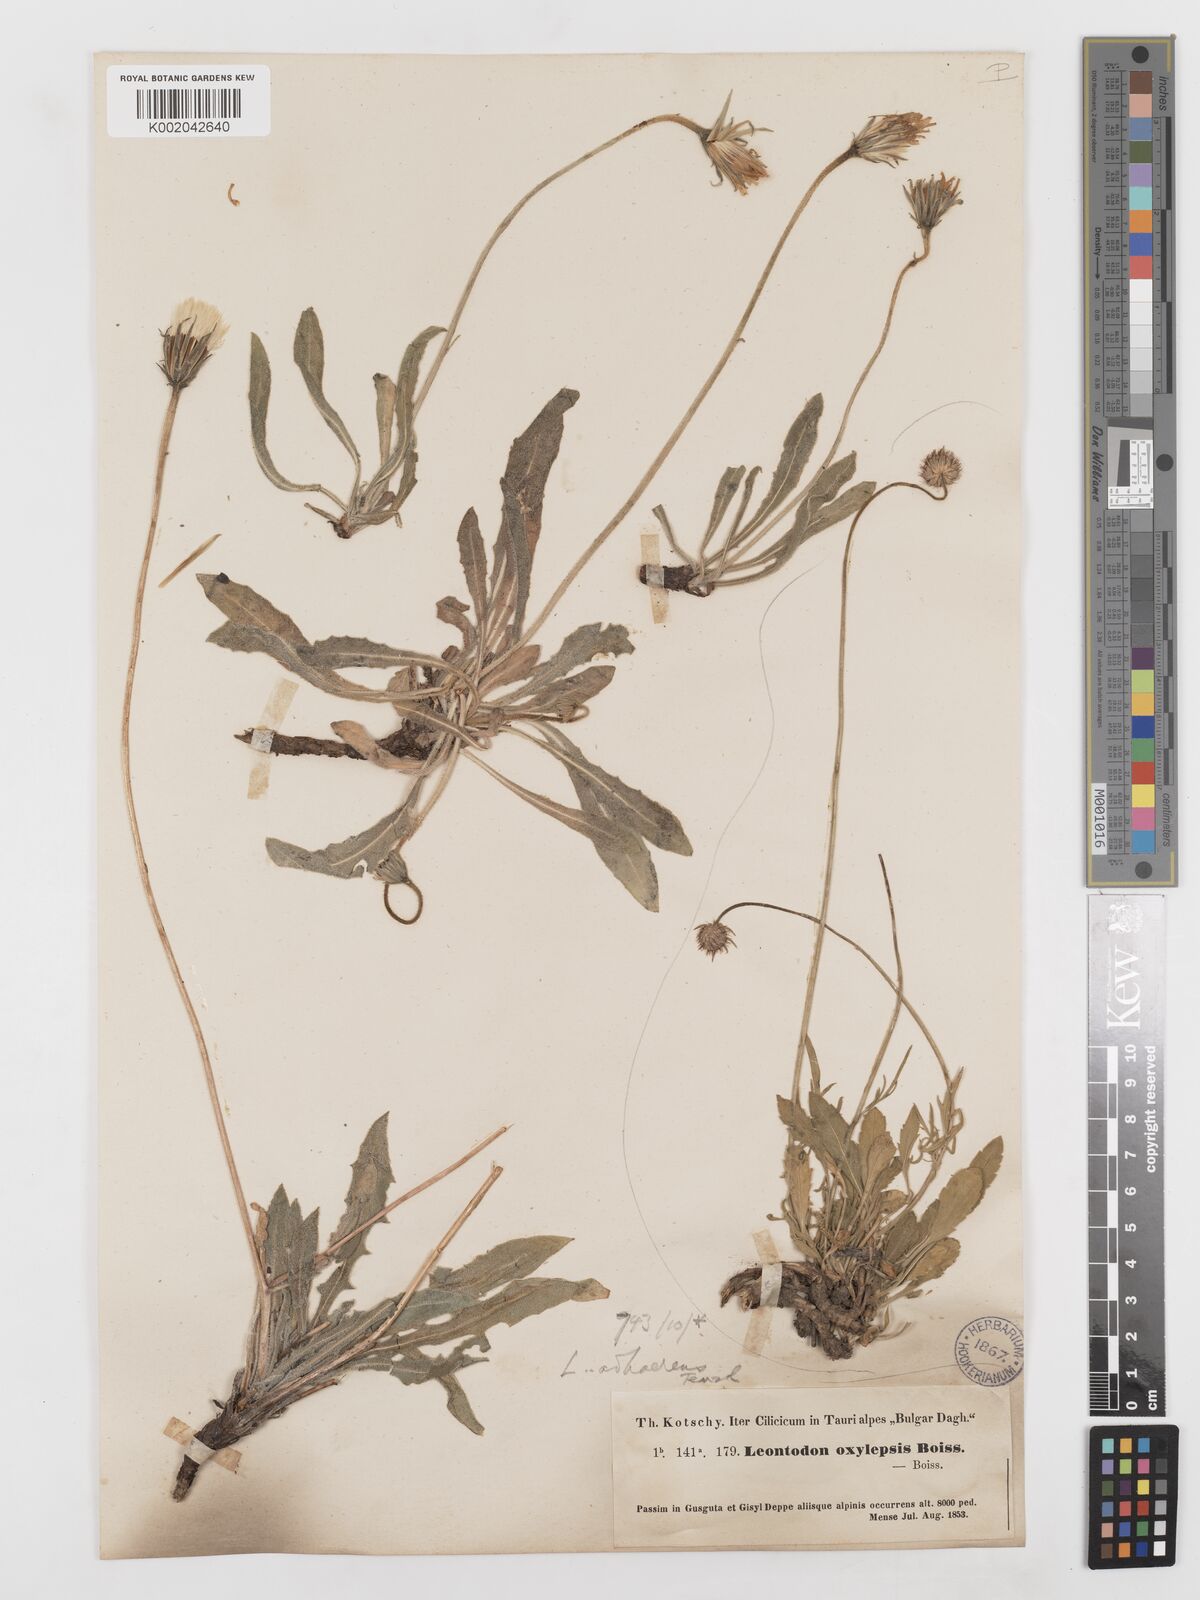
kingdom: Plantae
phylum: Tracheophyta
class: Magnoliopsida
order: Asterales
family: Asteraceae
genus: Leontodon
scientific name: Leontodon oxylepis
